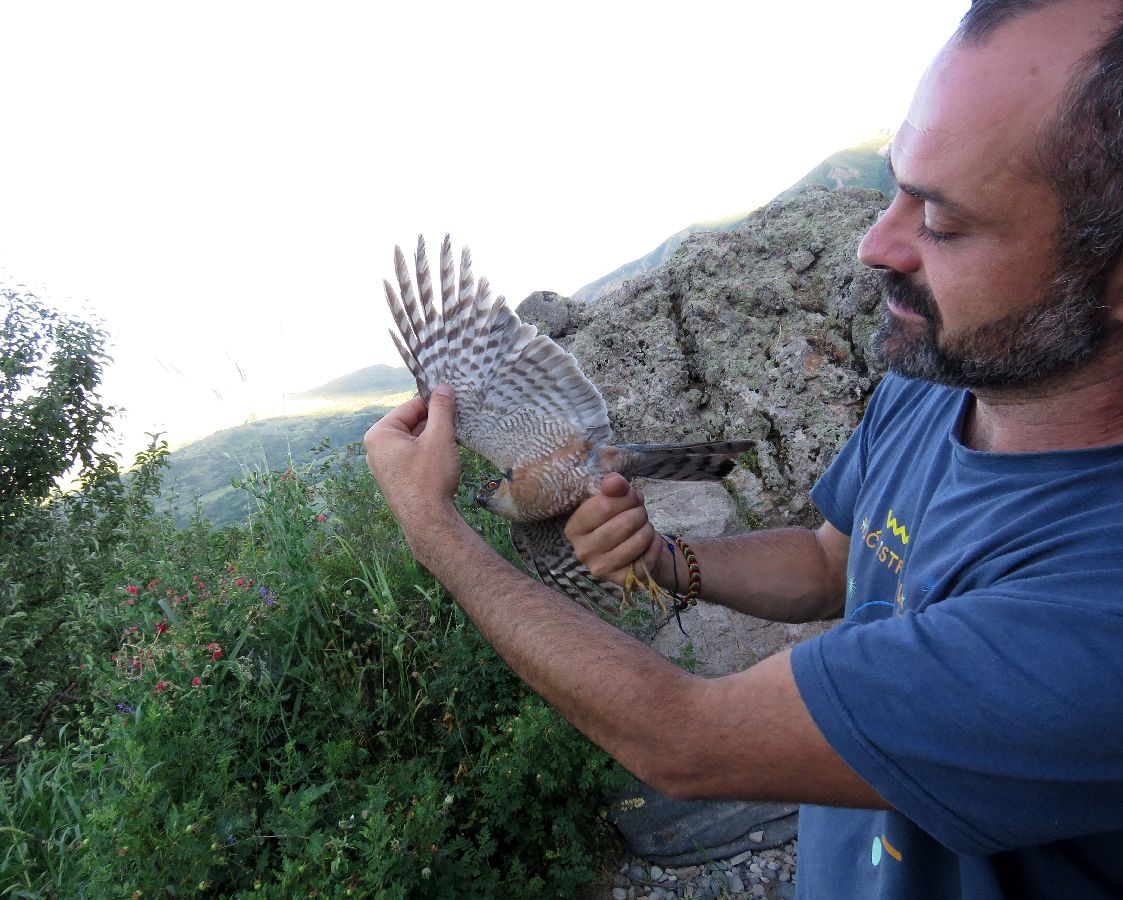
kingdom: Animalia
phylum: Chordata
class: Aves
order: Accipitriformes
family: Accipitridae
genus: Accipiter
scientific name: Accipiter nisus
